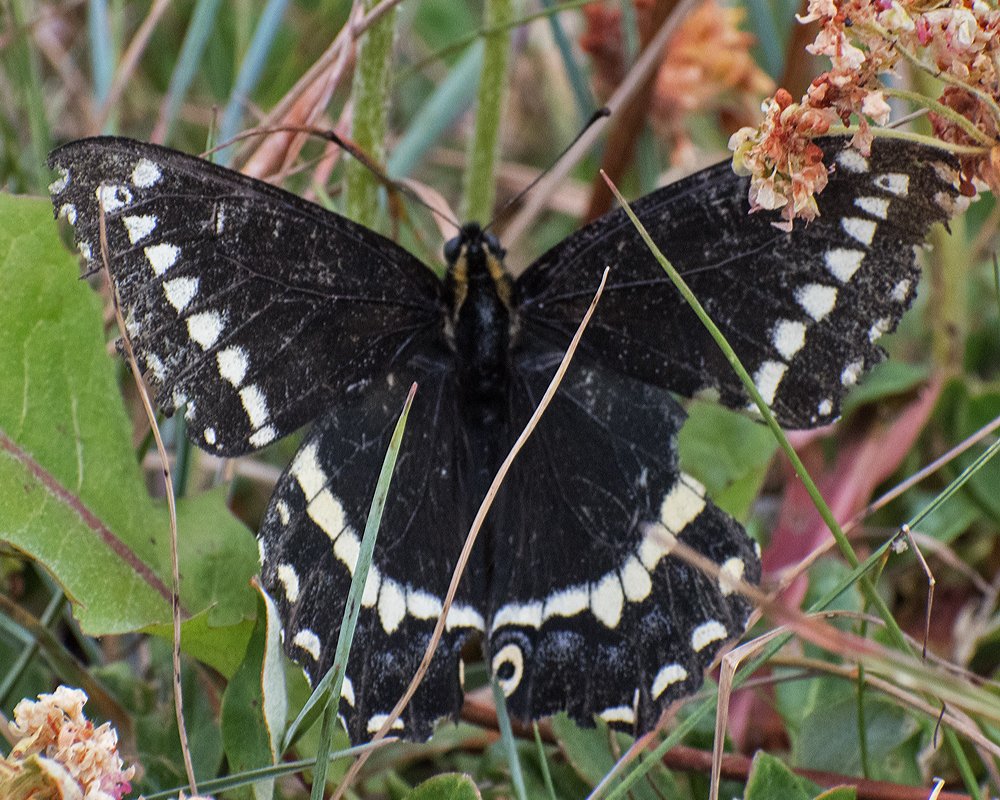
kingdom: Animalia
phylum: Arthropoda
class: Insecta
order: Lepidoptera
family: Papilionidae
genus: Papilio
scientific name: Papilio indra
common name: Indra Swallowtail
